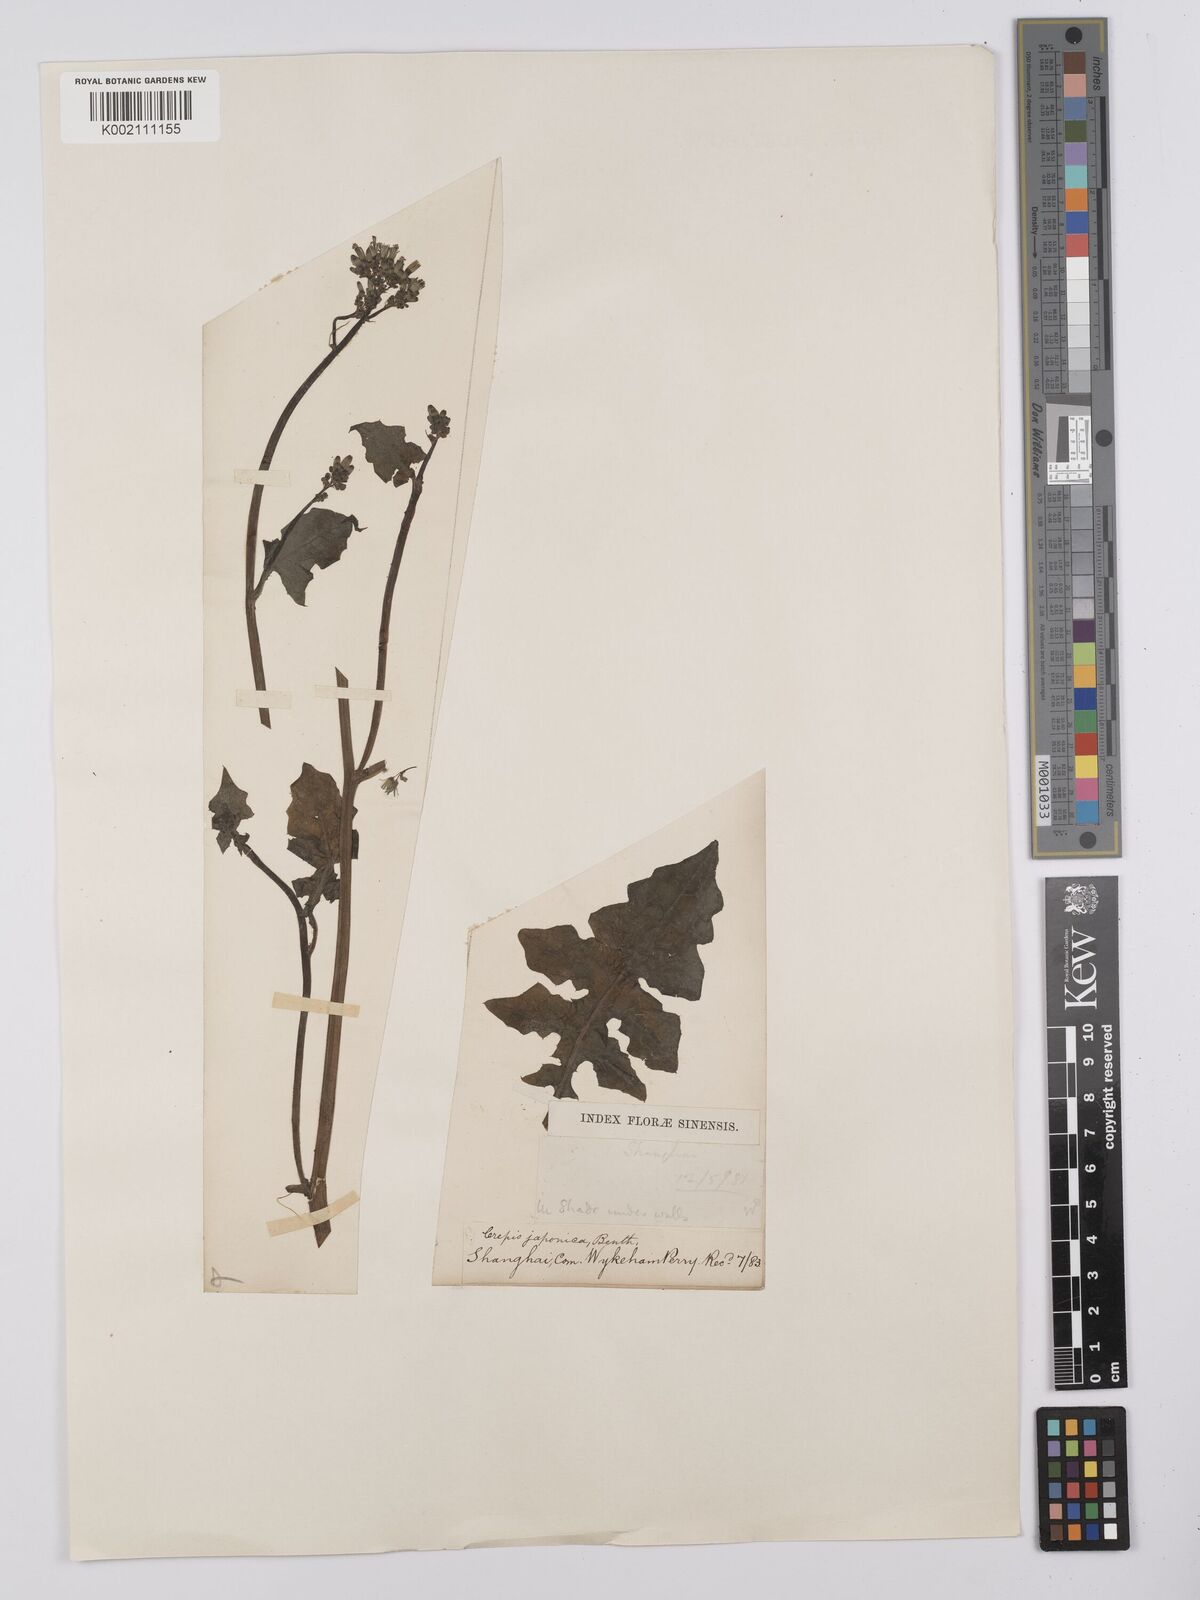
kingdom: Plantae
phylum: Tracheophyta
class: Magnoliopsida
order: Asterales
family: Asteraceae
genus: Youngia
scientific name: Youngia japonica
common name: Oriental false hawksbeard
